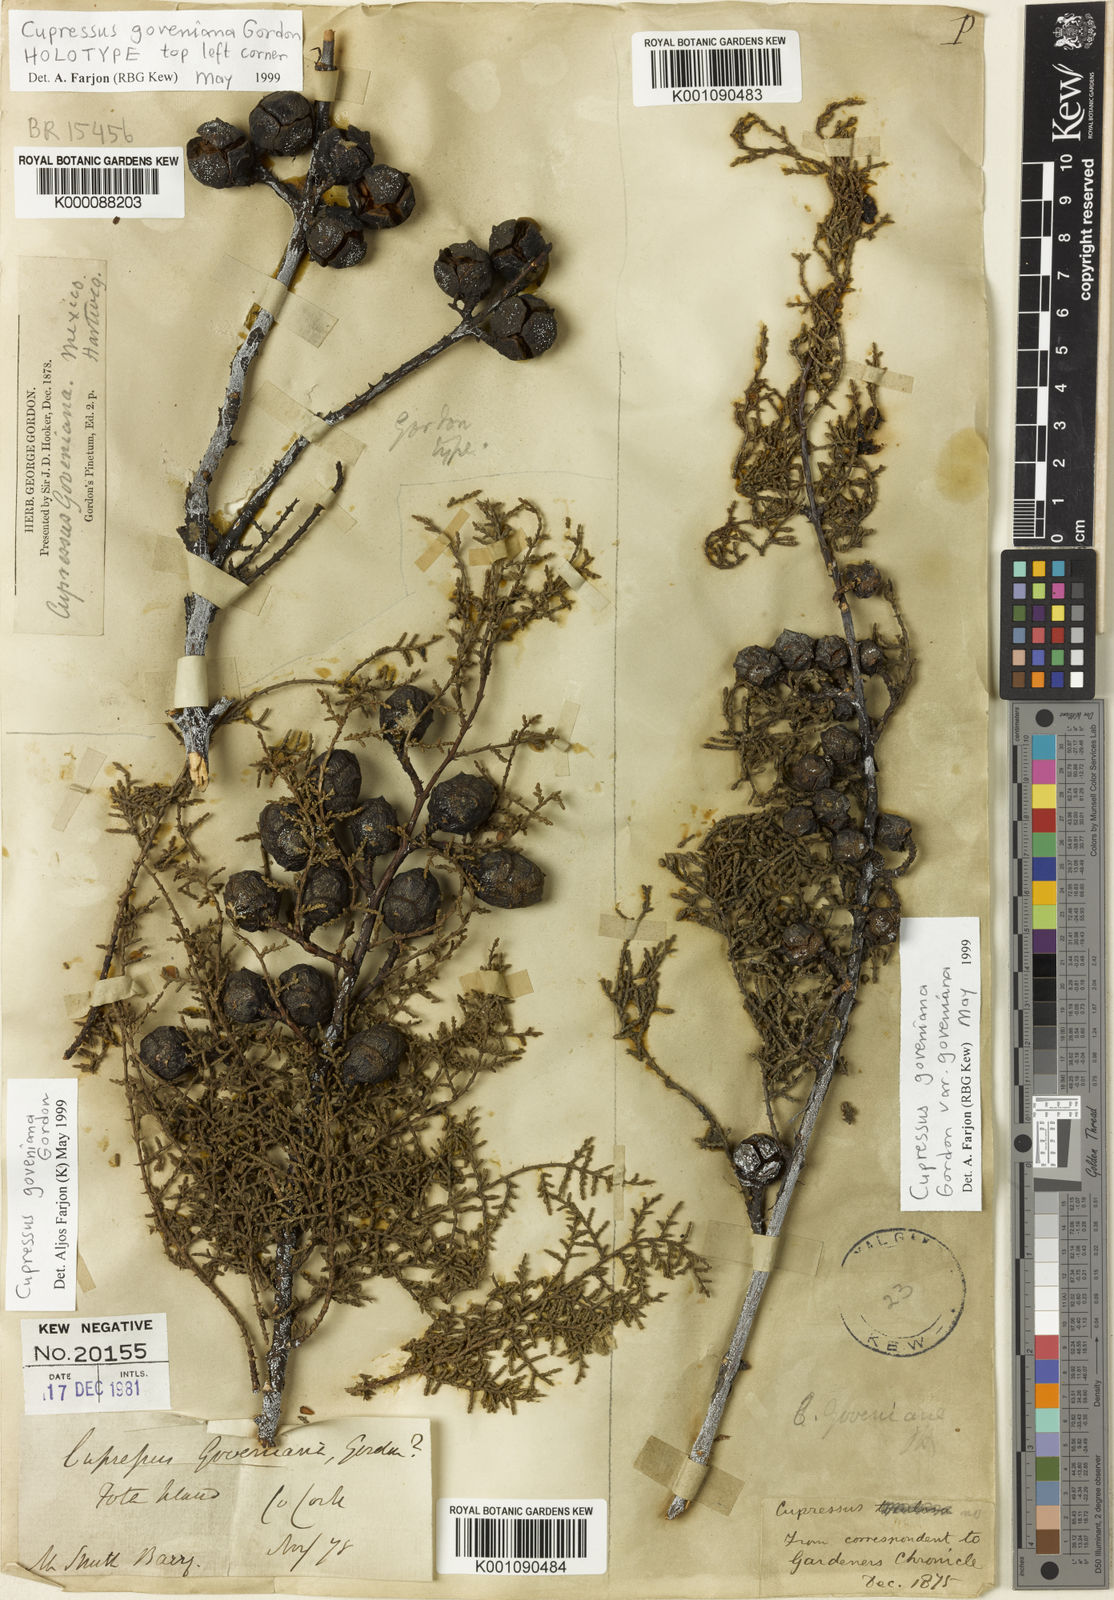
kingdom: Plantae
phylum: Tracheophyta
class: Pinopsida
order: Pinales
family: Cupressaceae
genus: Cupressus
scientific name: Cupressus goveniana
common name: Gowen cypress
